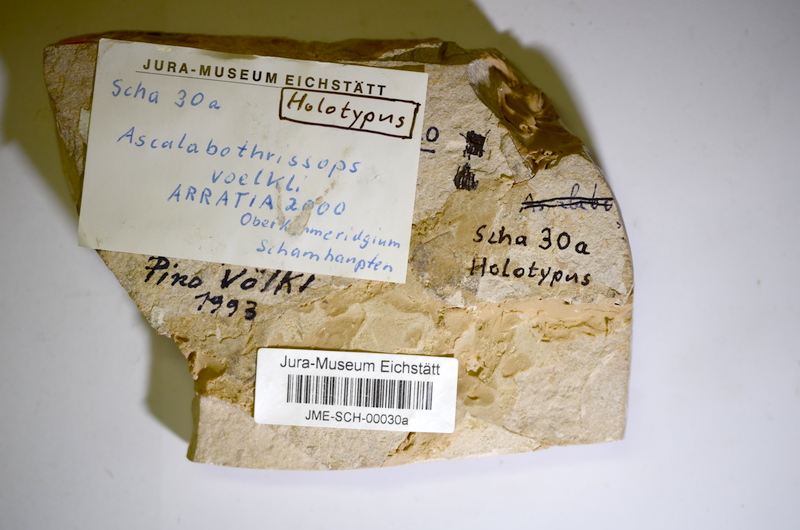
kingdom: Animalia
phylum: Chordata
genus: Ascalabothrissops
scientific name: Ascalabothrissops voelkli
